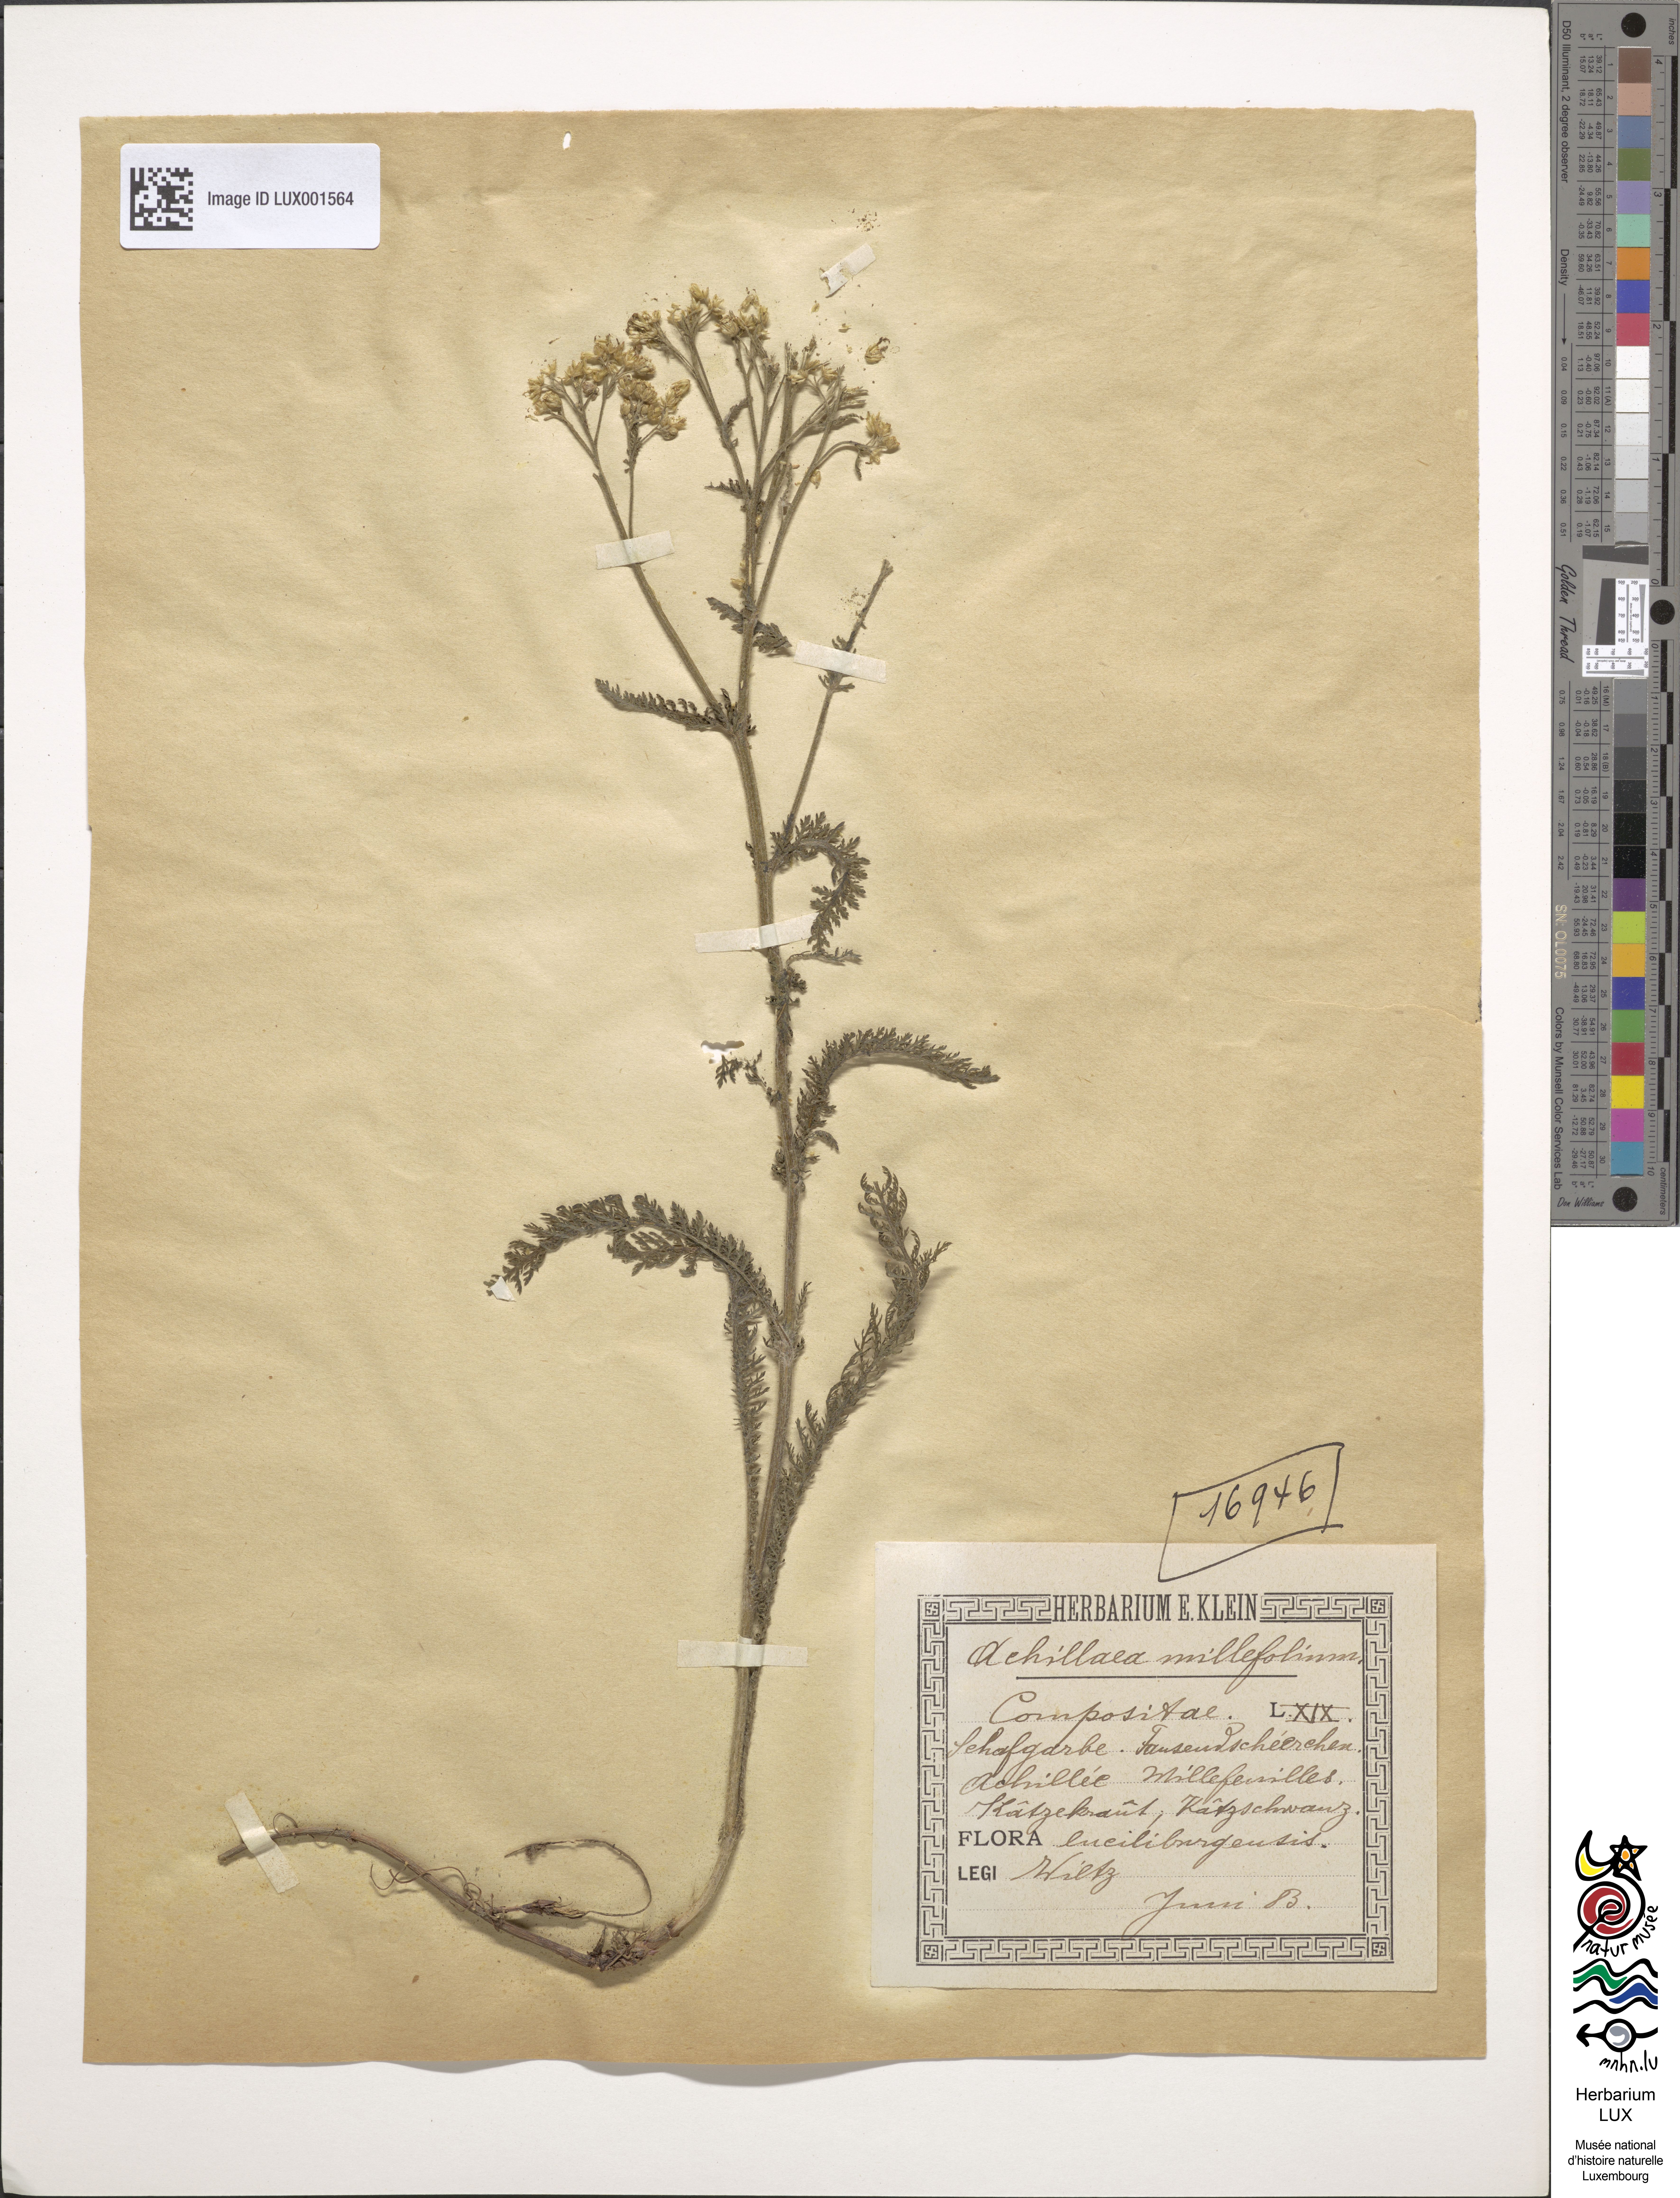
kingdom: Plantae
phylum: Tracheophyta
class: Magnoliopsida
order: Asterales
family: Asteraceae
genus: Achillea
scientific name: Achillea millefolium
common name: Yarrow
